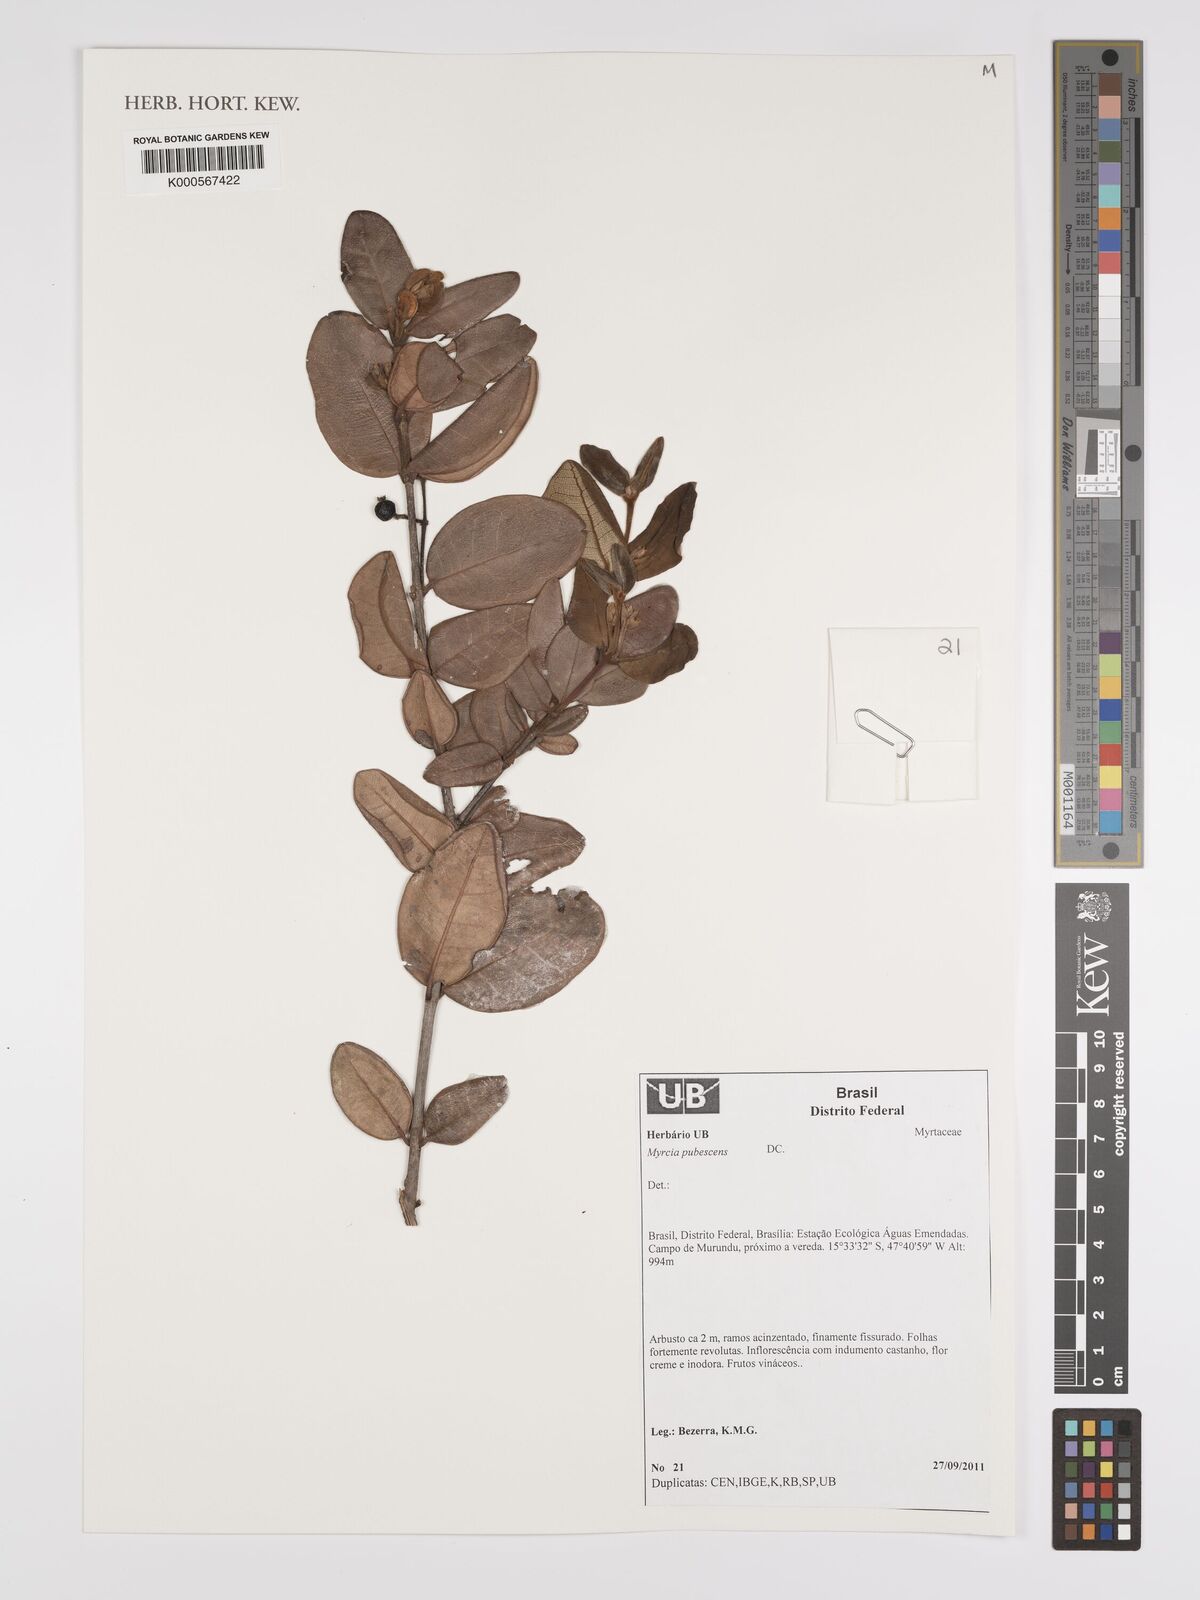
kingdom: Plantae
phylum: Tracheophyta
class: Magnoliopsida
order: Myrtales
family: Myrtaceae
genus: Myrcia
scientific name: Myrcia pubescens
